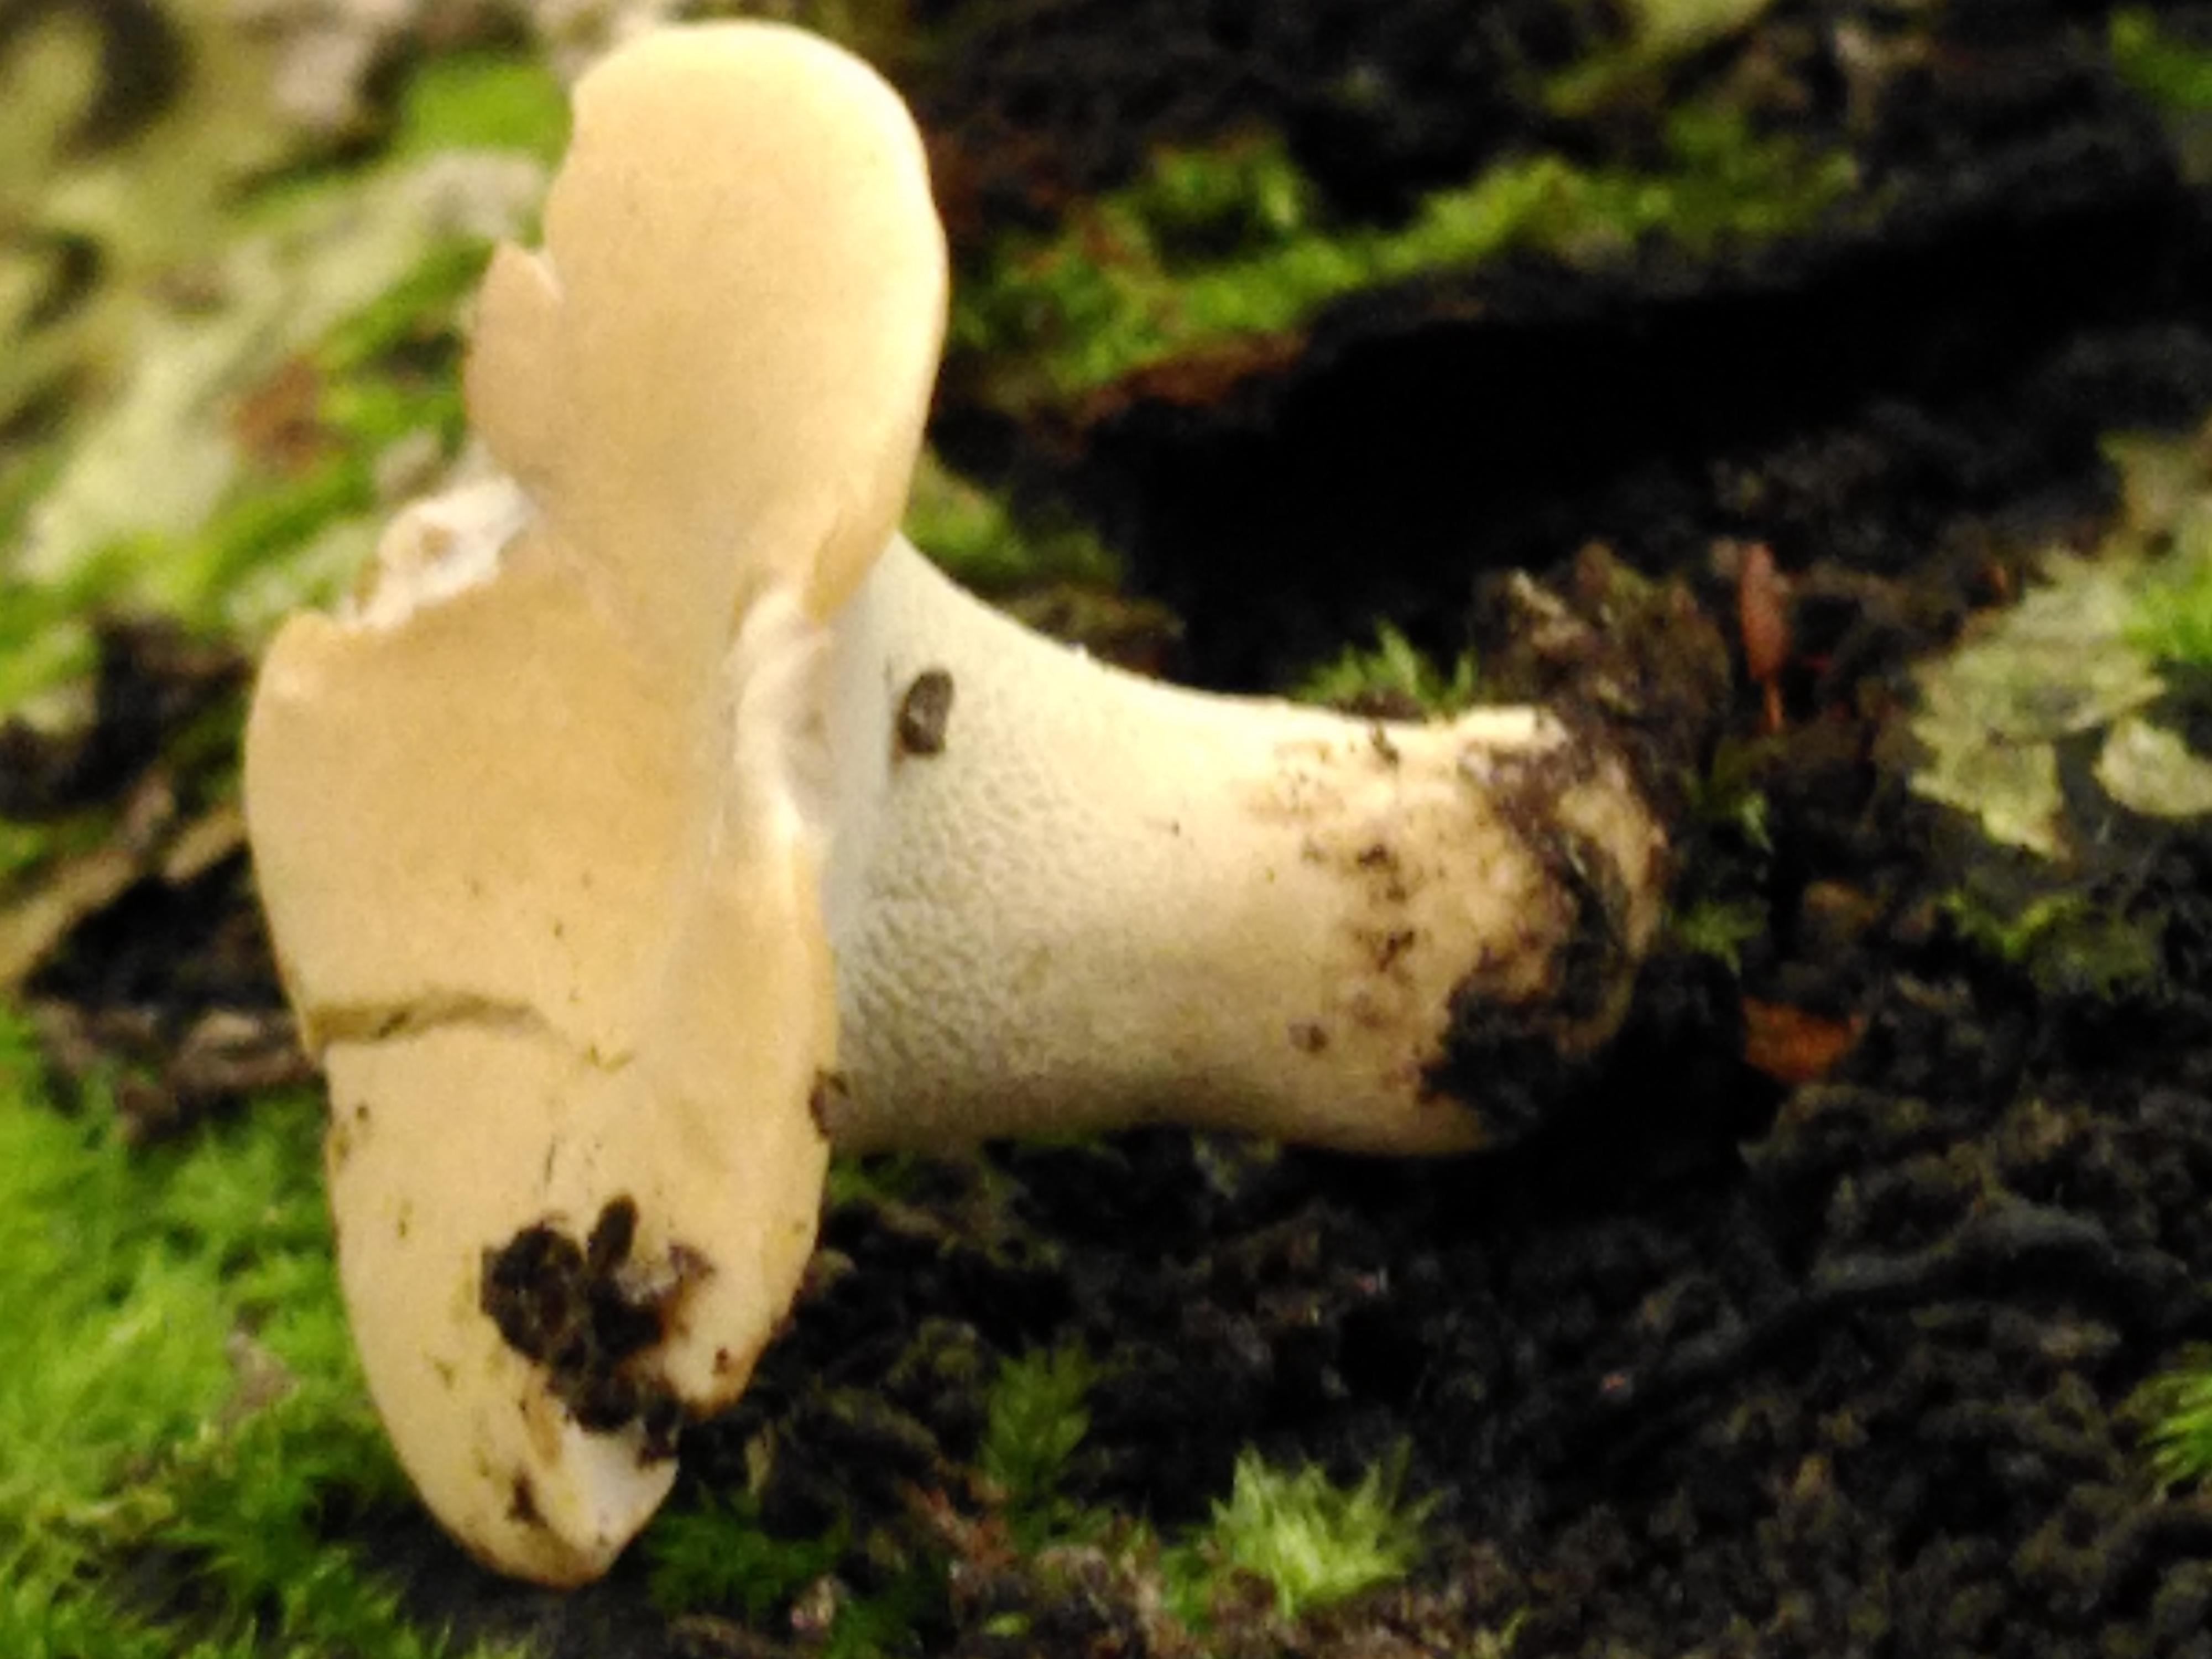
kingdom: Fungi
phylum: Basidiomycota
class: Agaricomycetes
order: Polyporales
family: Polyporaceae
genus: Cerioporus
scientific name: Cerioporus varius
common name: foranderlig stilkporesvamp
